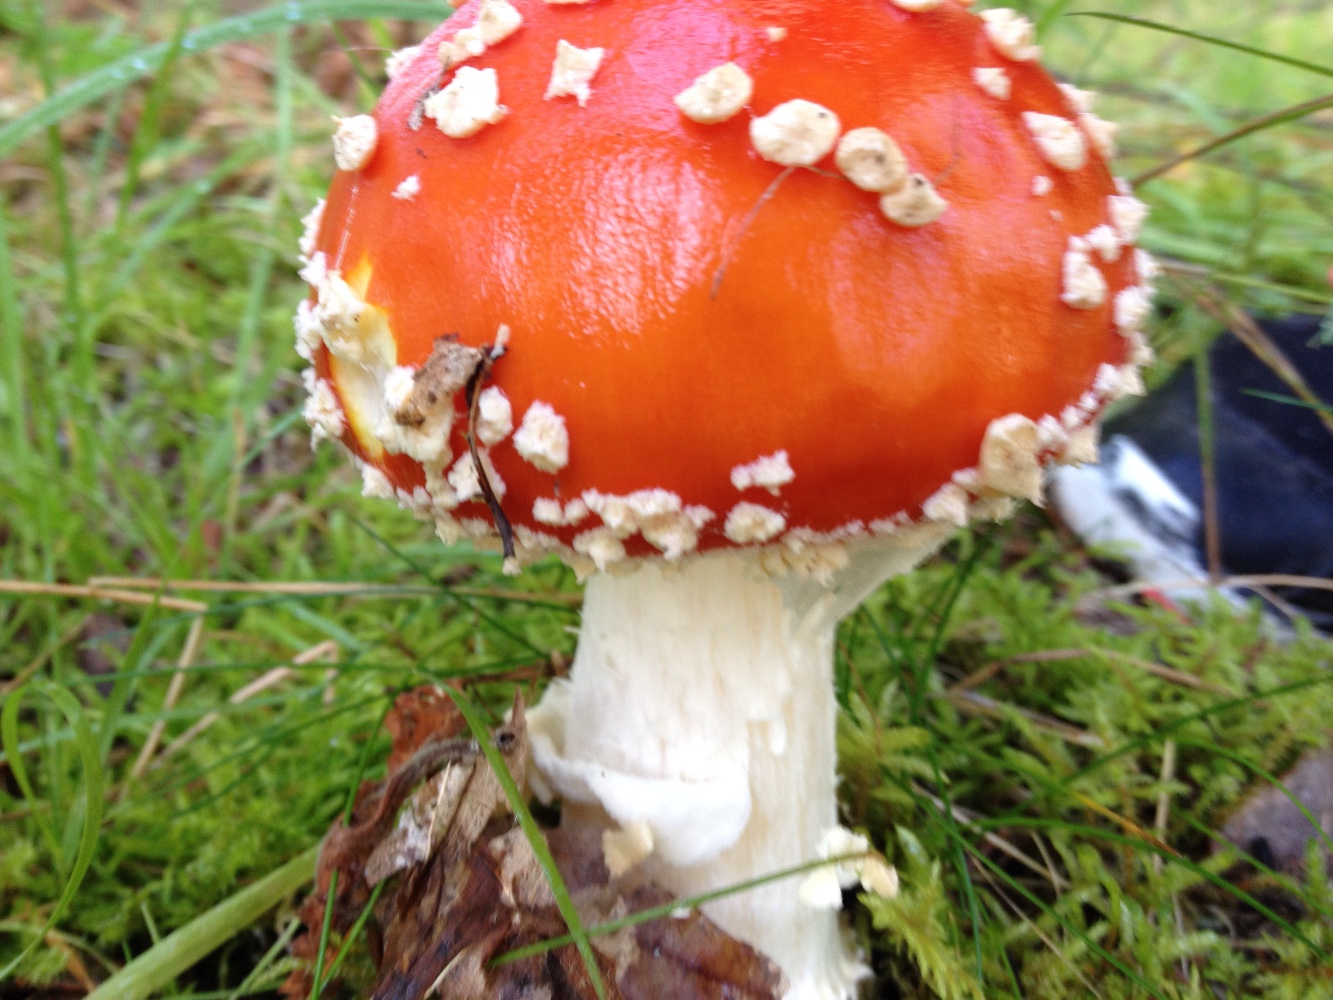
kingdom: Fungi
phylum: Basidiomycota
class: Agaricomycetes
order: Agaricales
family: Amanitaceae
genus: Amanita
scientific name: Amanita muscaria
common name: rød fluesvamp
